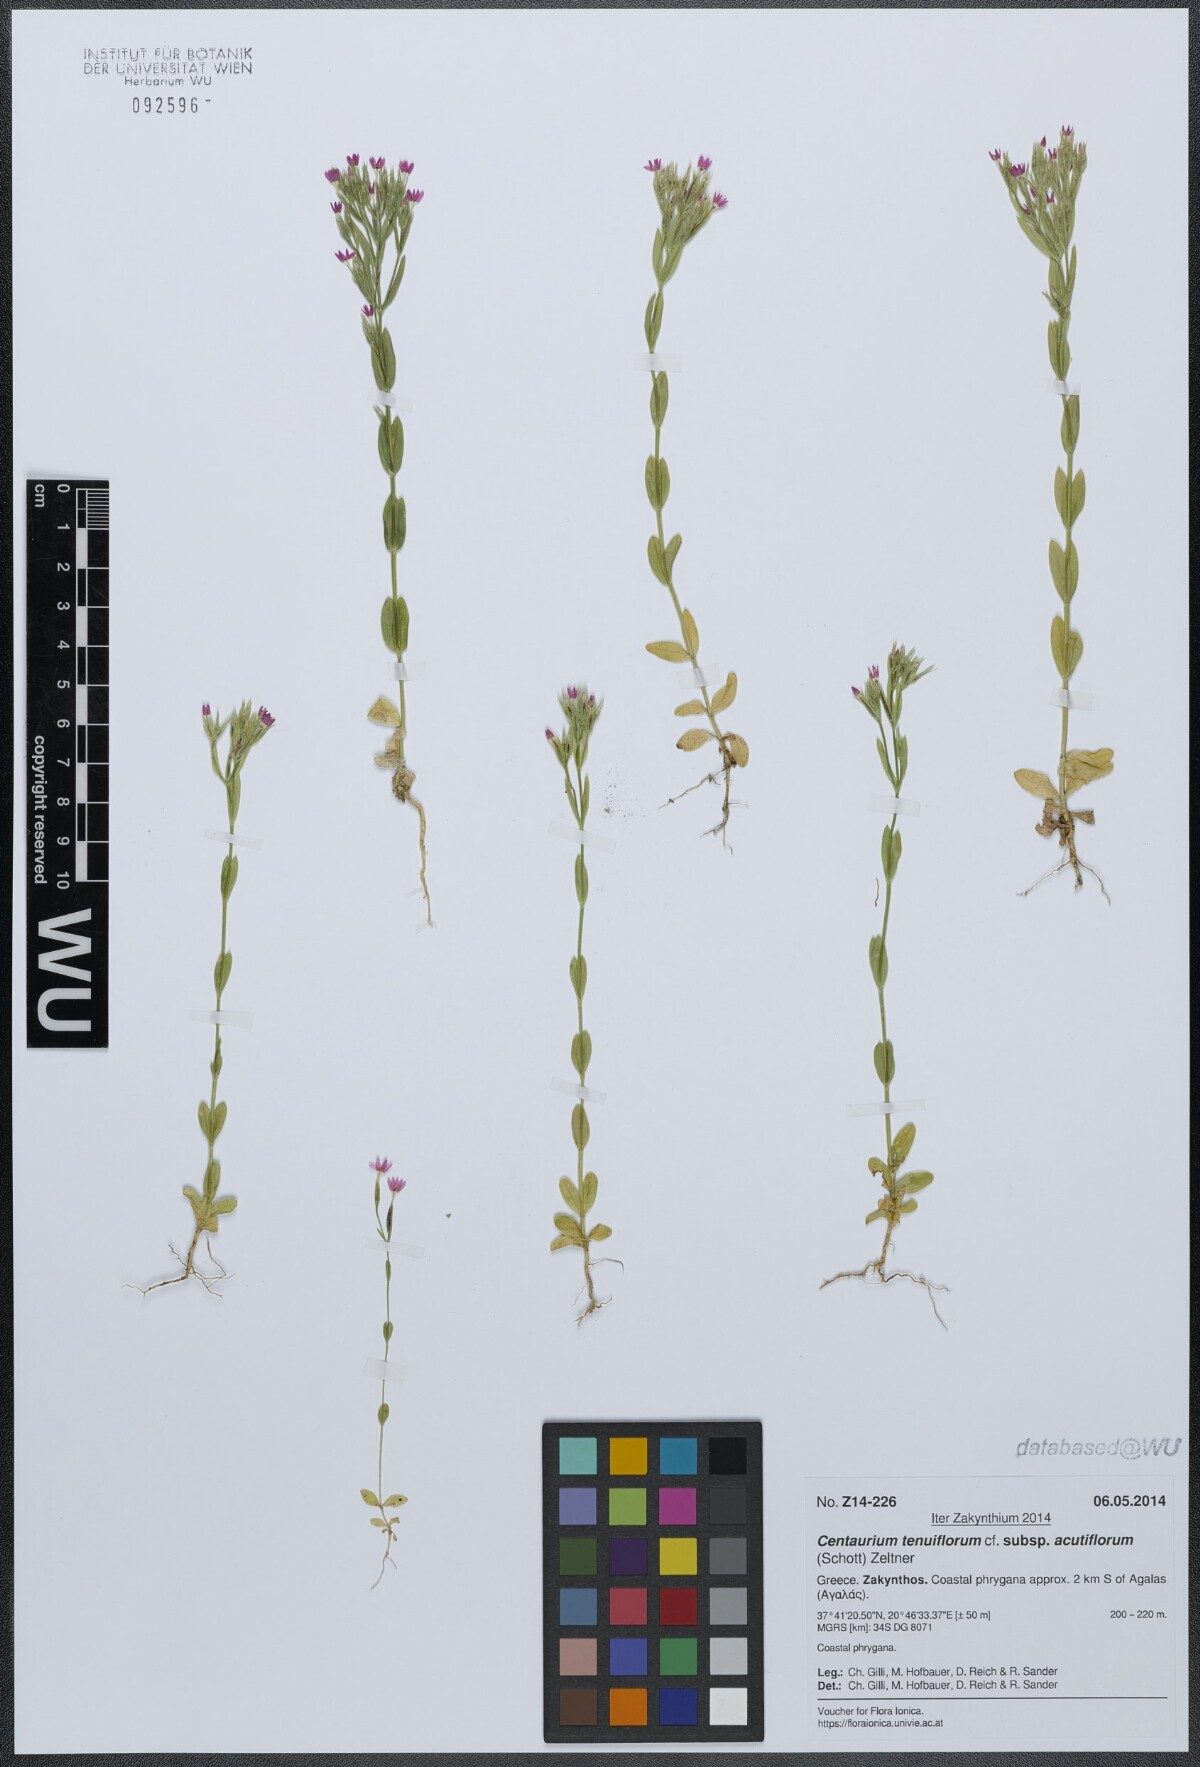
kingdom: Plantae
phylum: Tracheophyta
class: Magnoliopsida
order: Gentianales
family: Gentianaceae
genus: Centaurium
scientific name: Centaurium tenuiflorum
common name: Slender centaury
